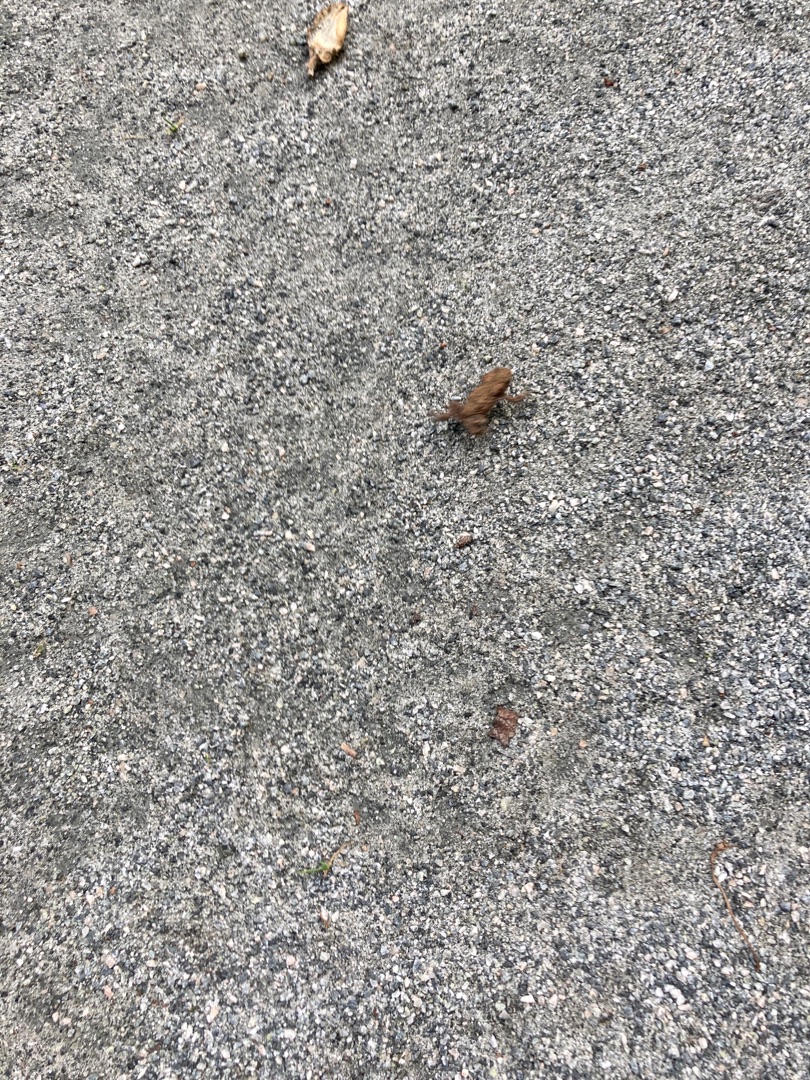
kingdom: Animalia
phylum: Chordata
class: Amphibia
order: Anura
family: Bufonidae
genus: Bufo
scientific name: Bufo bufo
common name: Skrubtudse
